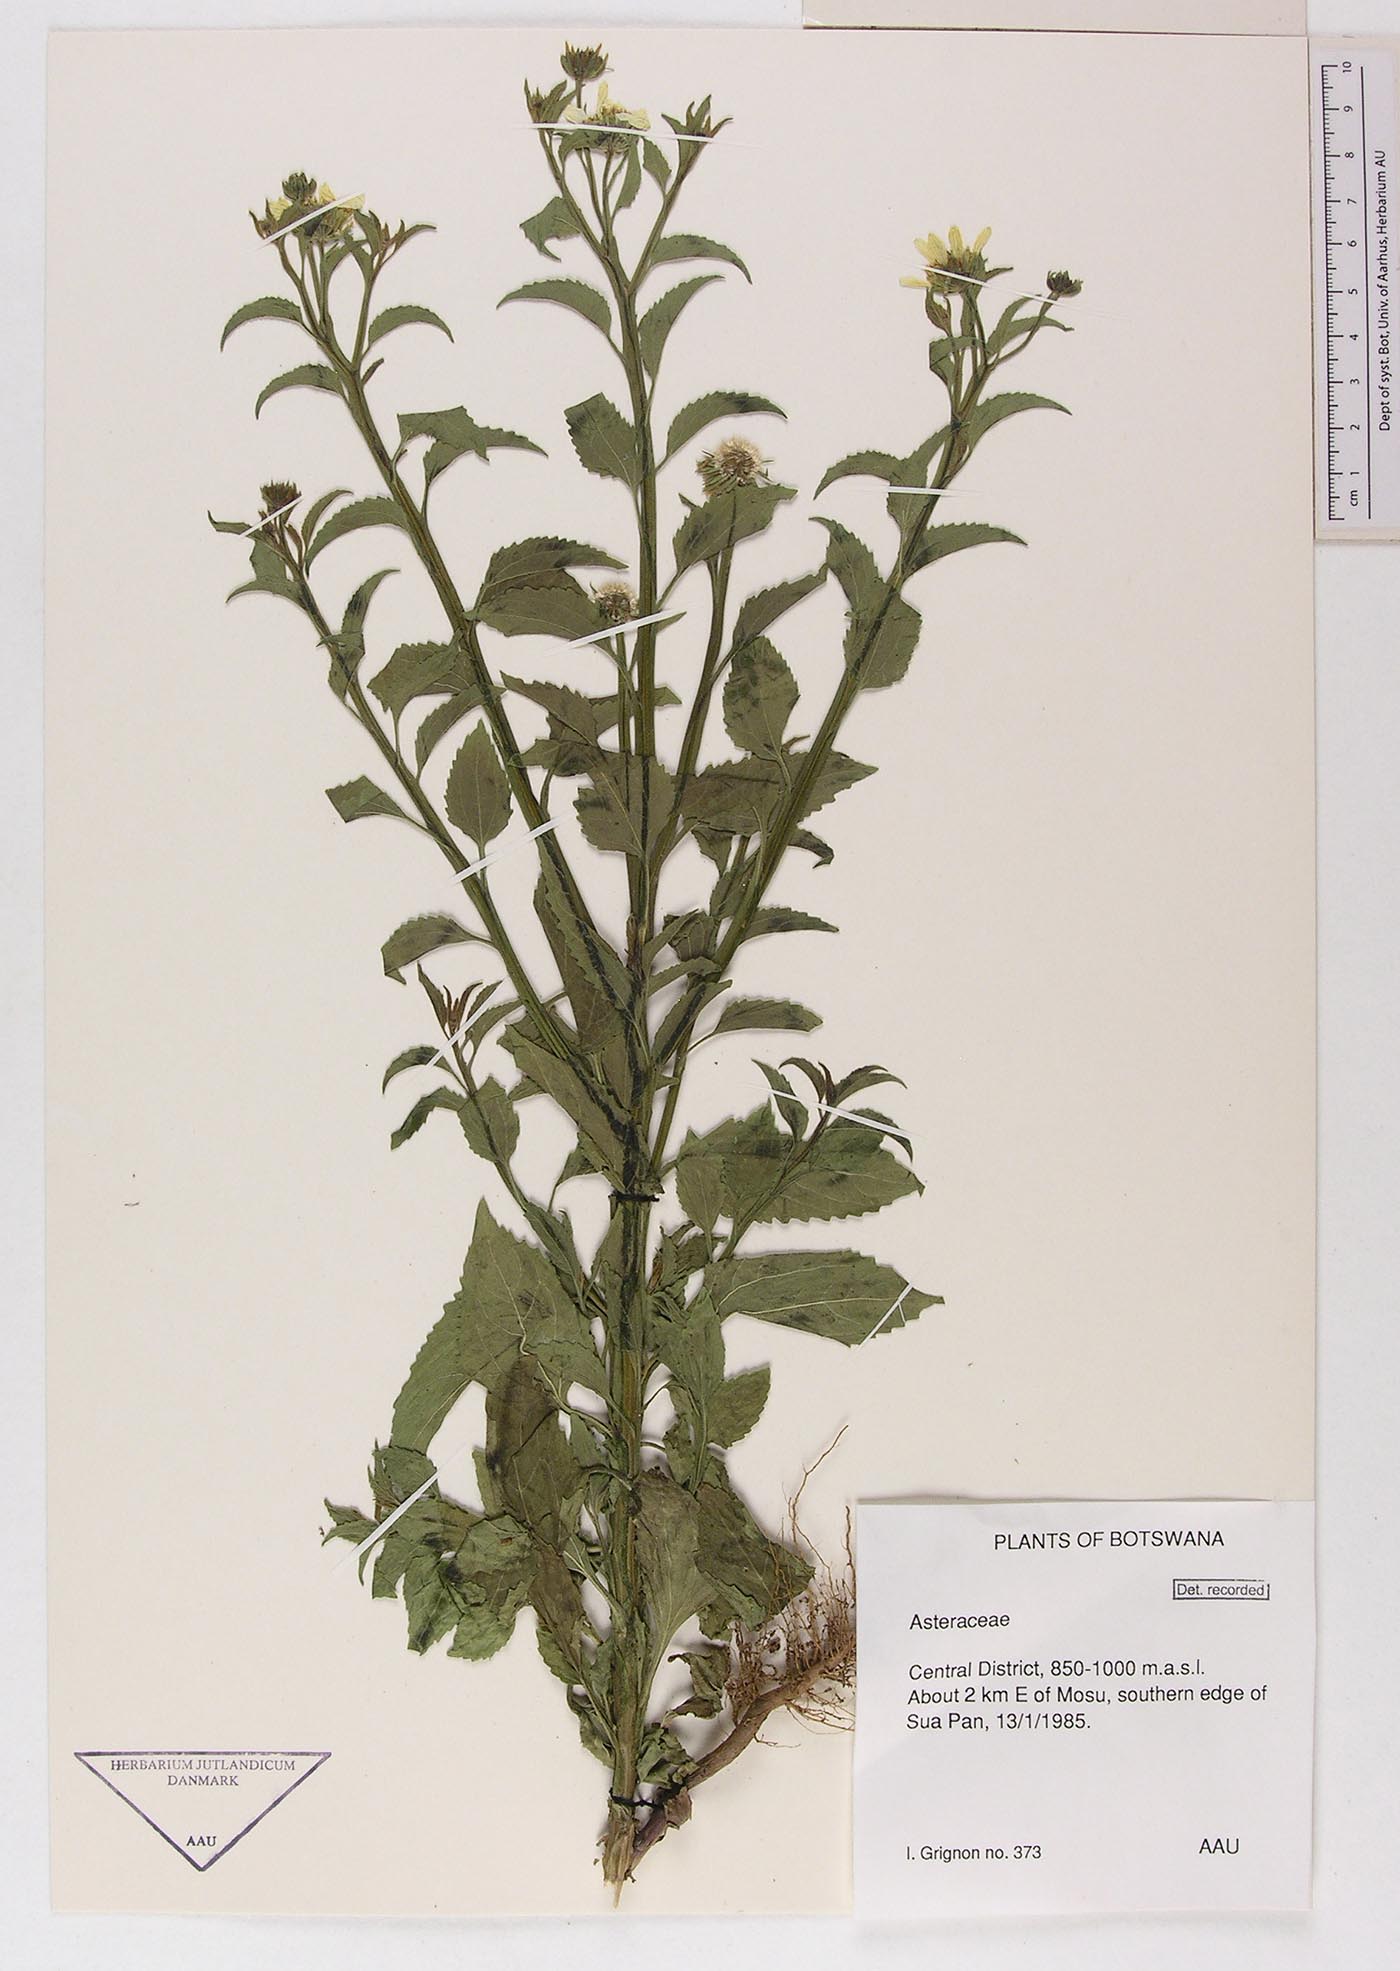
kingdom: Plantae
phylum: Tracheophyta
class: Magnoliopsida
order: Asterales
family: Asteraceae
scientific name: Asteraceae
